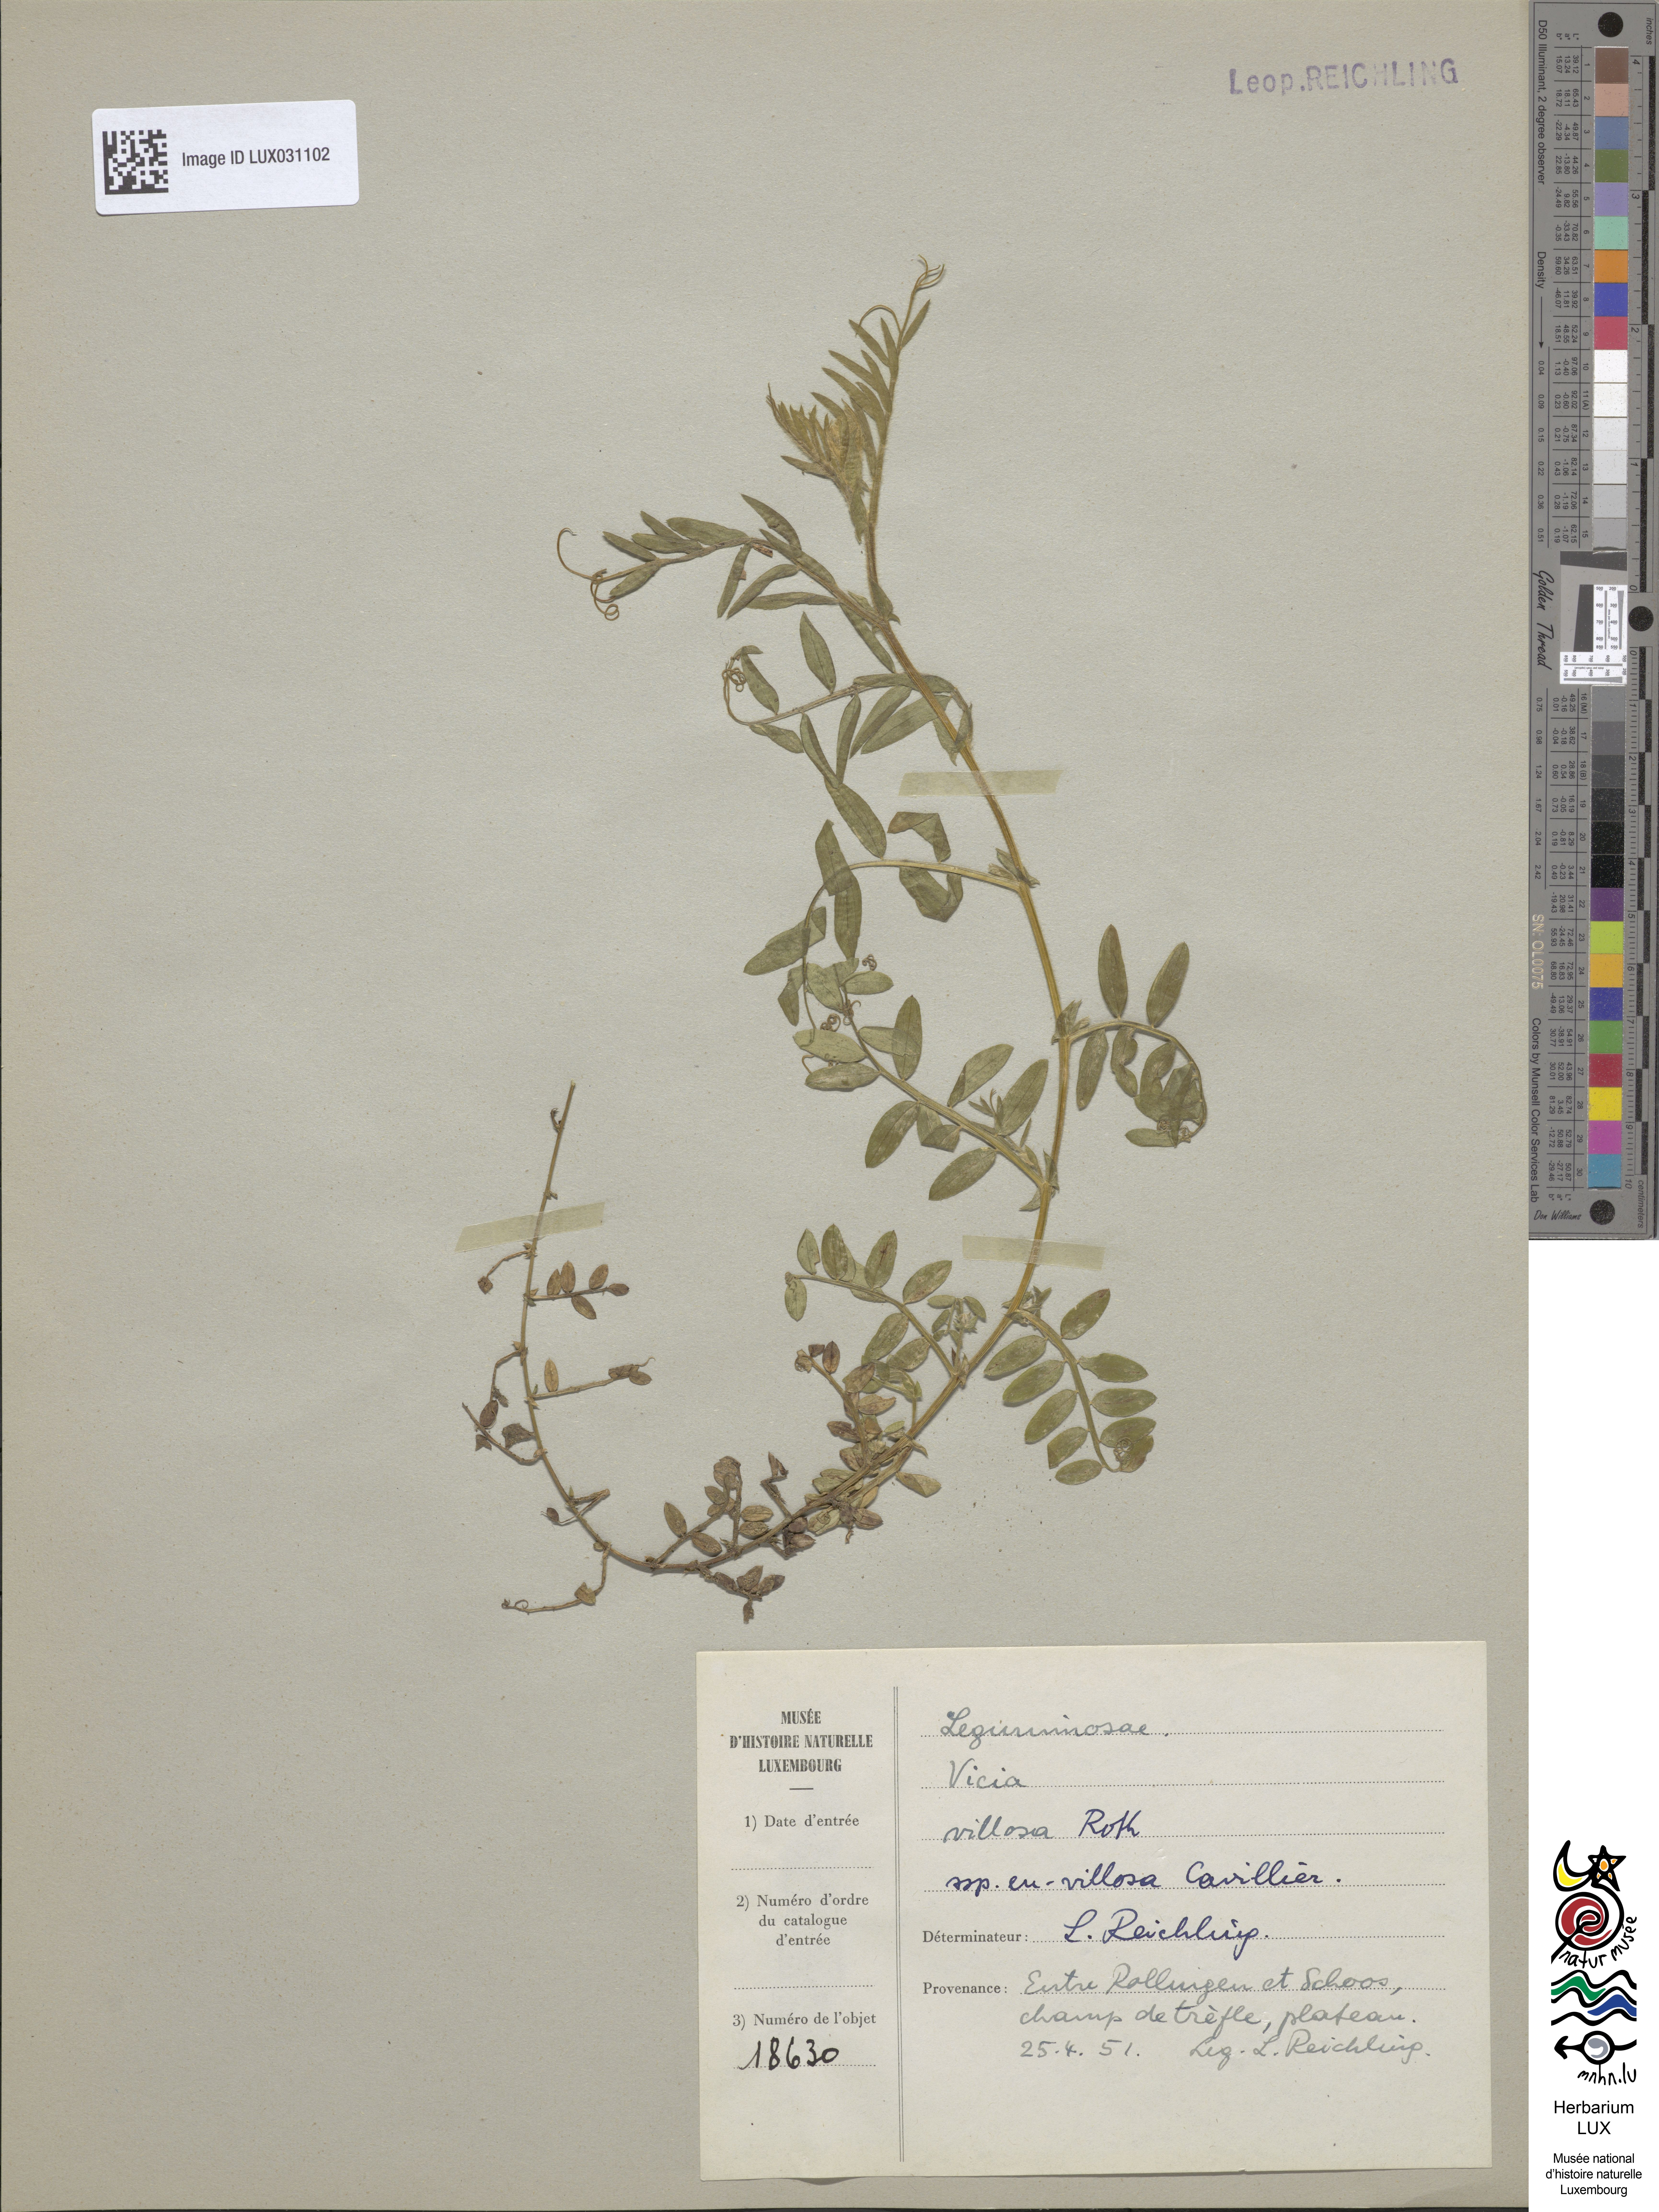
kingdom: Plantae
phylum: Tracheophyta
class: Magnoliopsida
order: Fabales
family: Fabaceae
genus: Vicia
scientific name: Vicia villosa
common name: Fodder vetch
